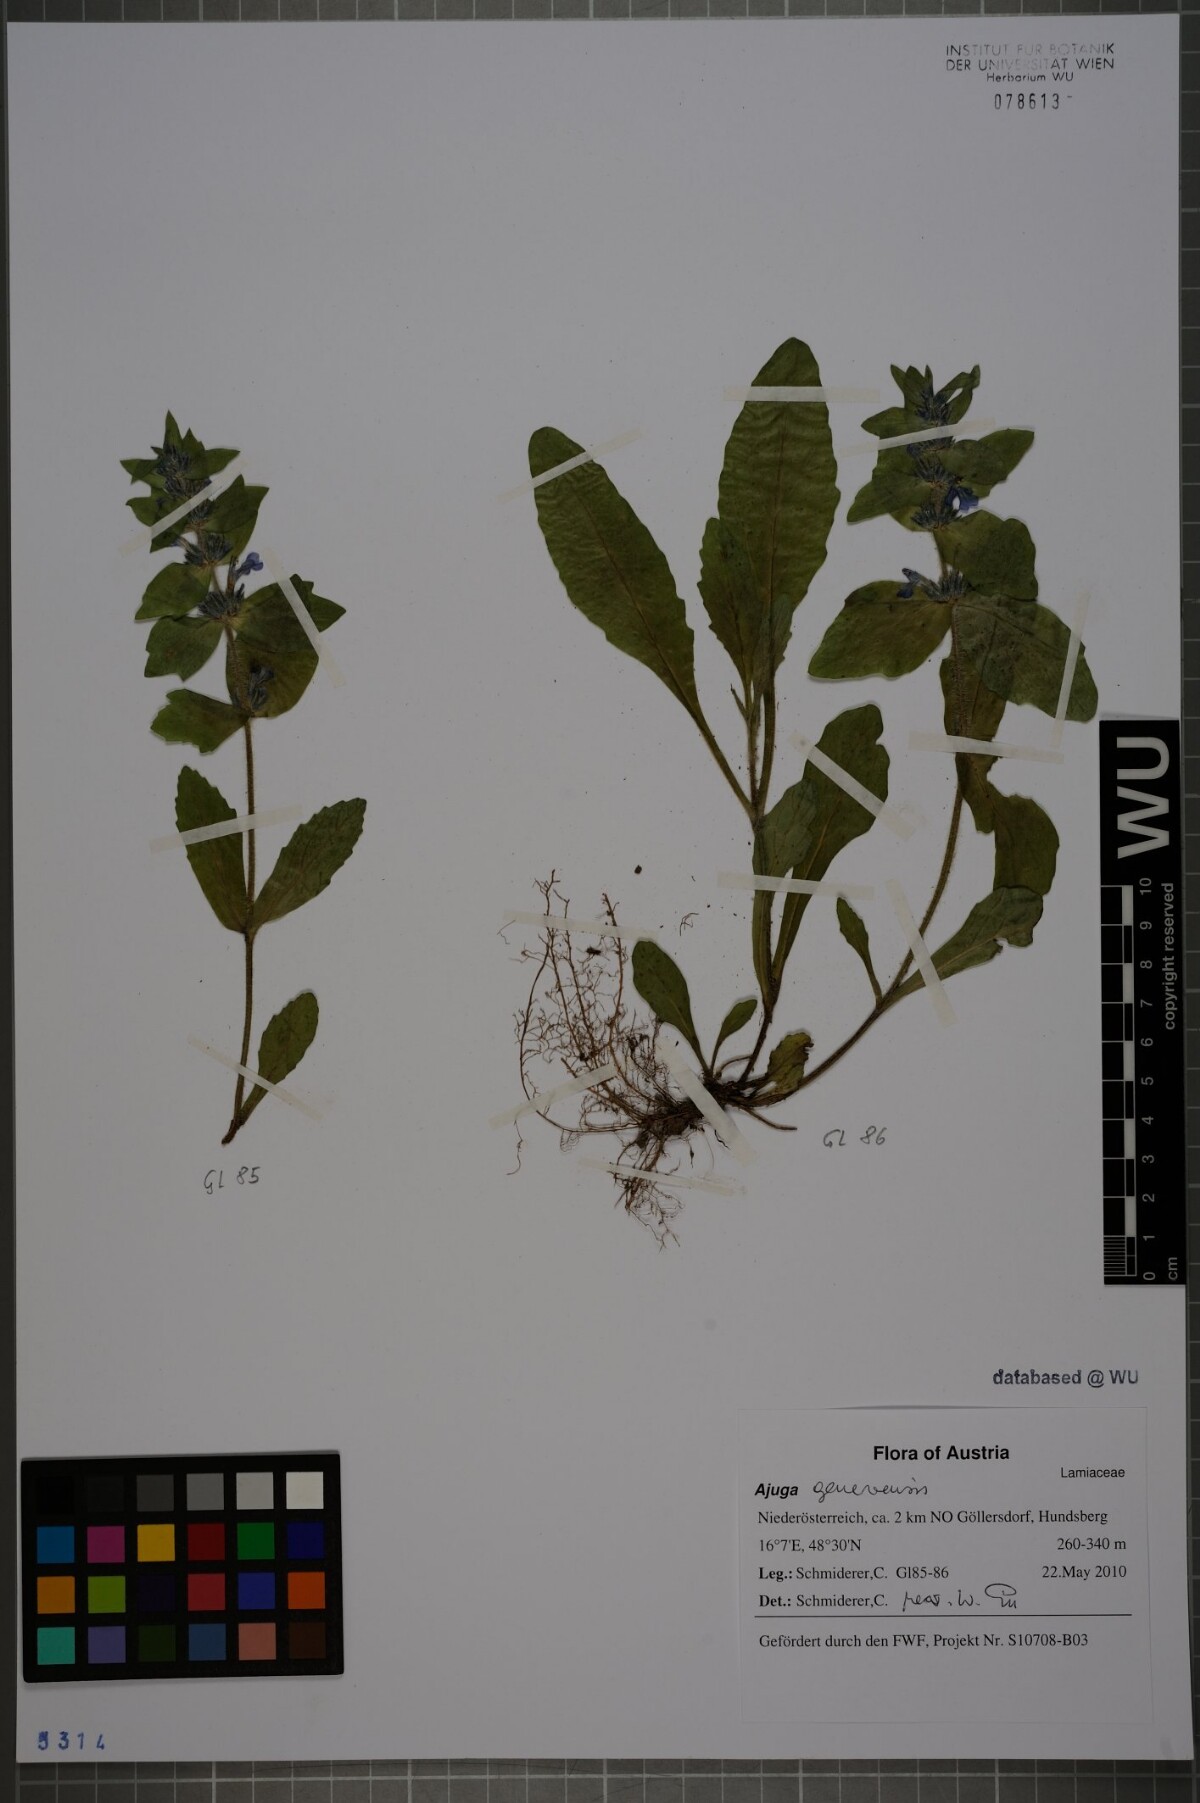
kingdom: Plantae
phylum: Tracheophyta
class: Magnoliopsida
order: Lamiales
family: Lamiaceae
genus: Ajuga
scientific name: Ajuga genevensis
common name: Blue bugle
